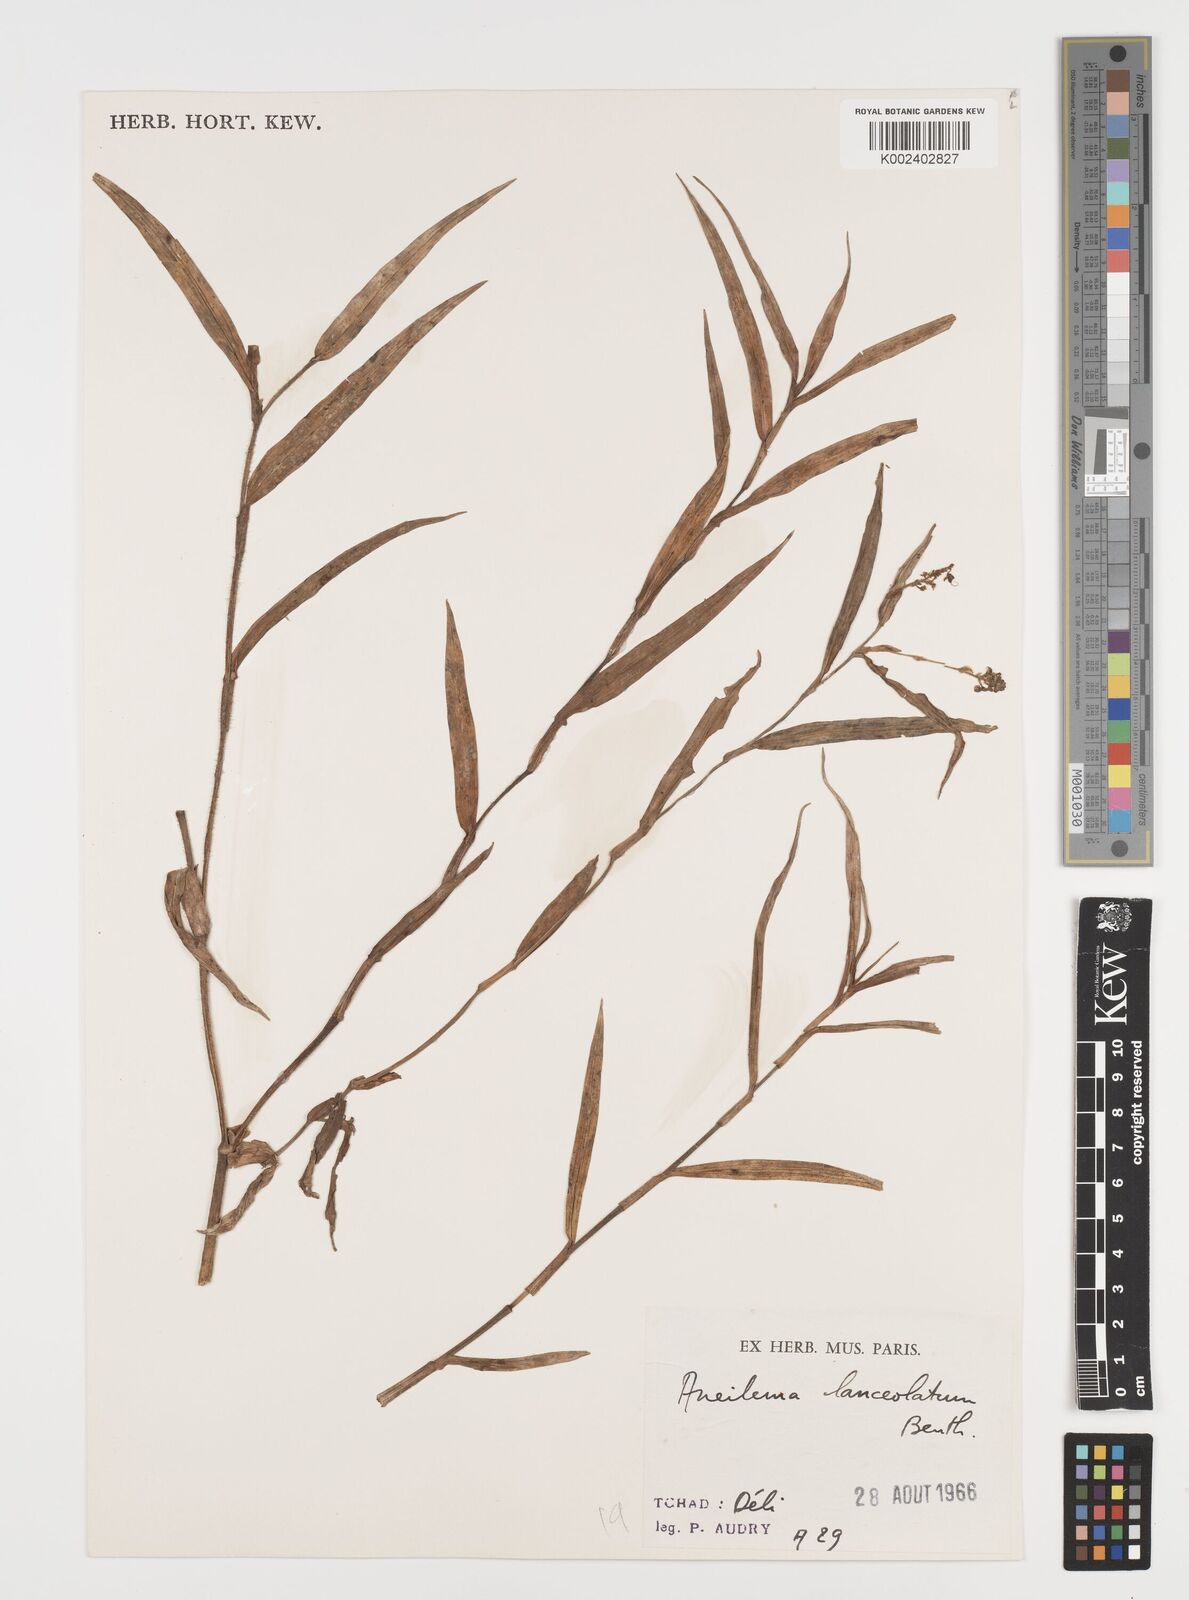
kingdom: Plantae
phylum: Tracheophyta
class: Liliopsida
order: Commelinales
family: Commelinaceae
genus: Aneilema
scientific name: Aneilema lanceolatum
